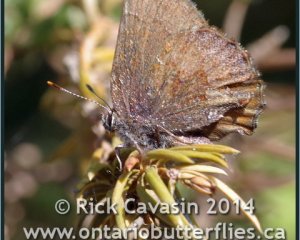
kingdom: Animalia
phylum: Arthropoda
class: Insecta
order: Lepidoptera
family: Lycaenidae
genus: Callophrys
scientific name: Callophrys polios
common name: Hoary Elfin
